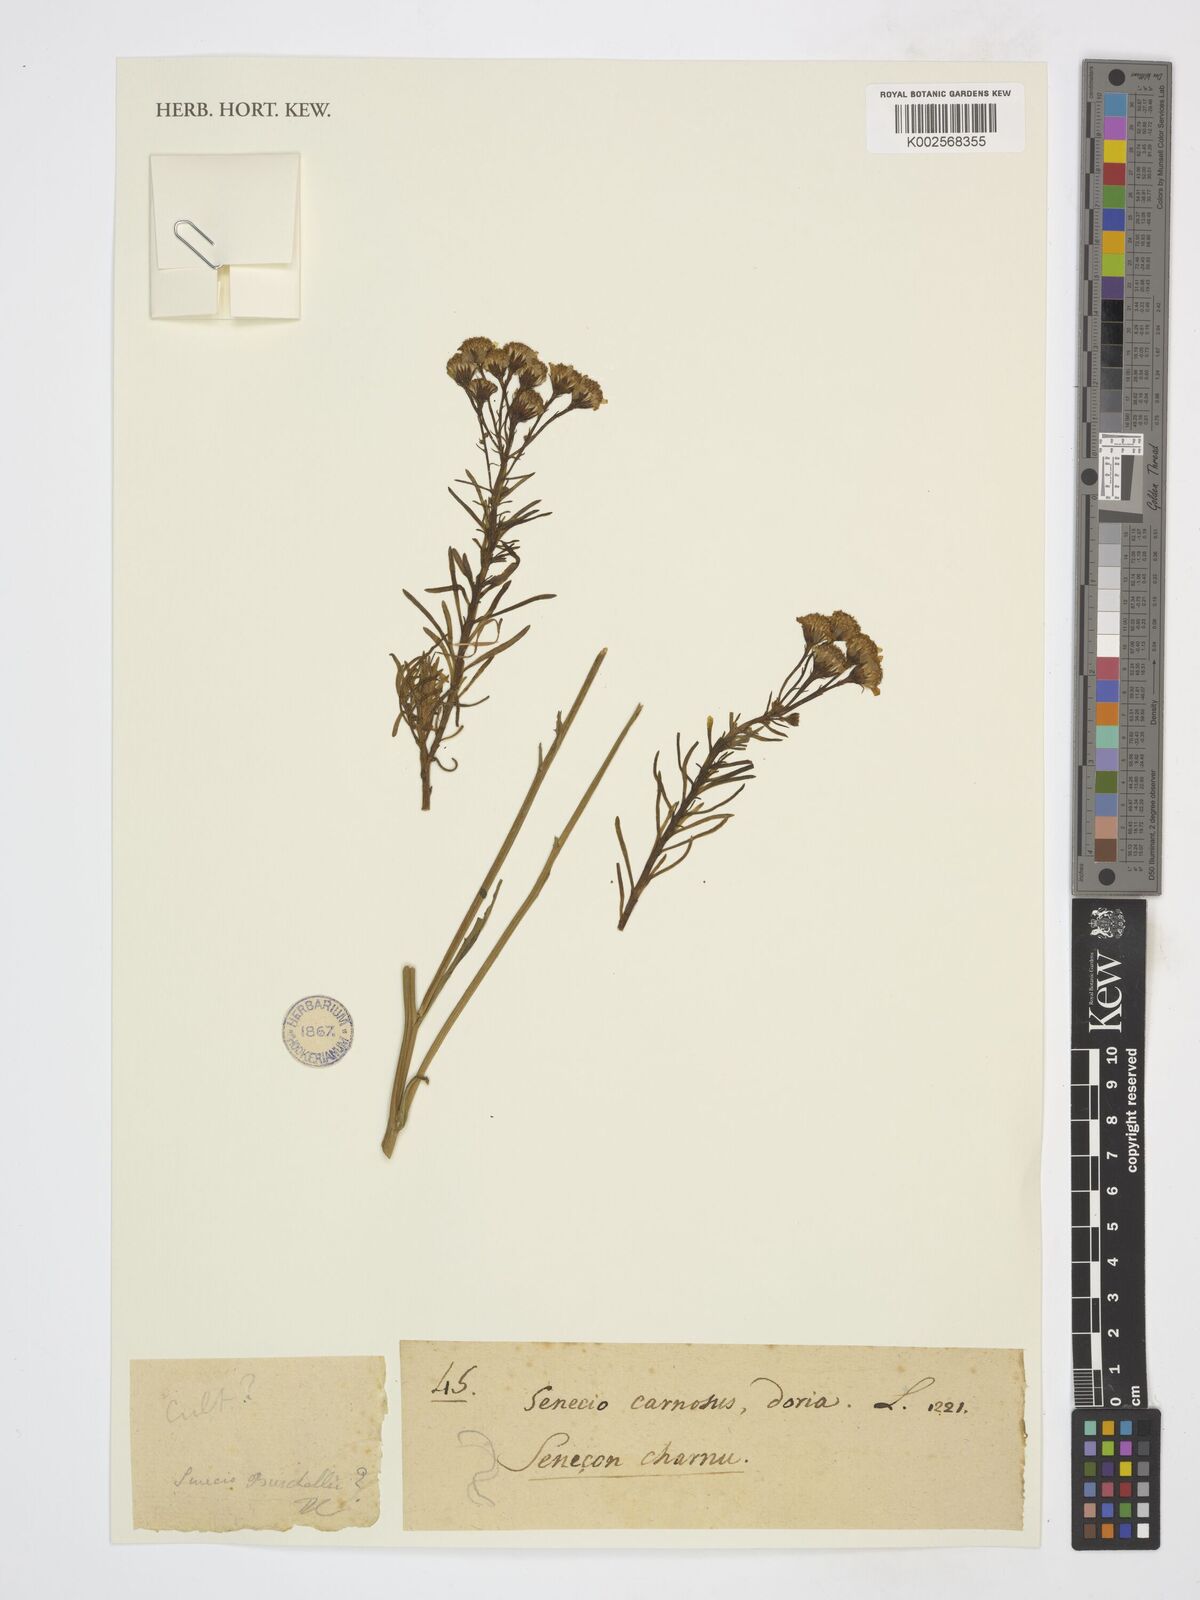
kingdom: Plantae
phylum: Tracheophyta
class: Magnoliopsida
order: Asterales
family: Asteraceae
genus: Senecio
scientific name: Senecio doria
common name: Golden ragwort
